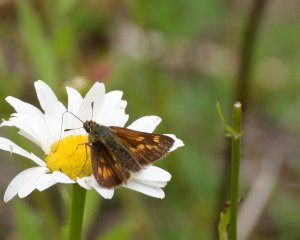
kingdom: Animalia
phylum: Arthropoda
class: Insecta
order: Lepidoptera
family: Hesperiidae
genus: Polites
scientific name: Polites
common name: Long Dash Skipper
